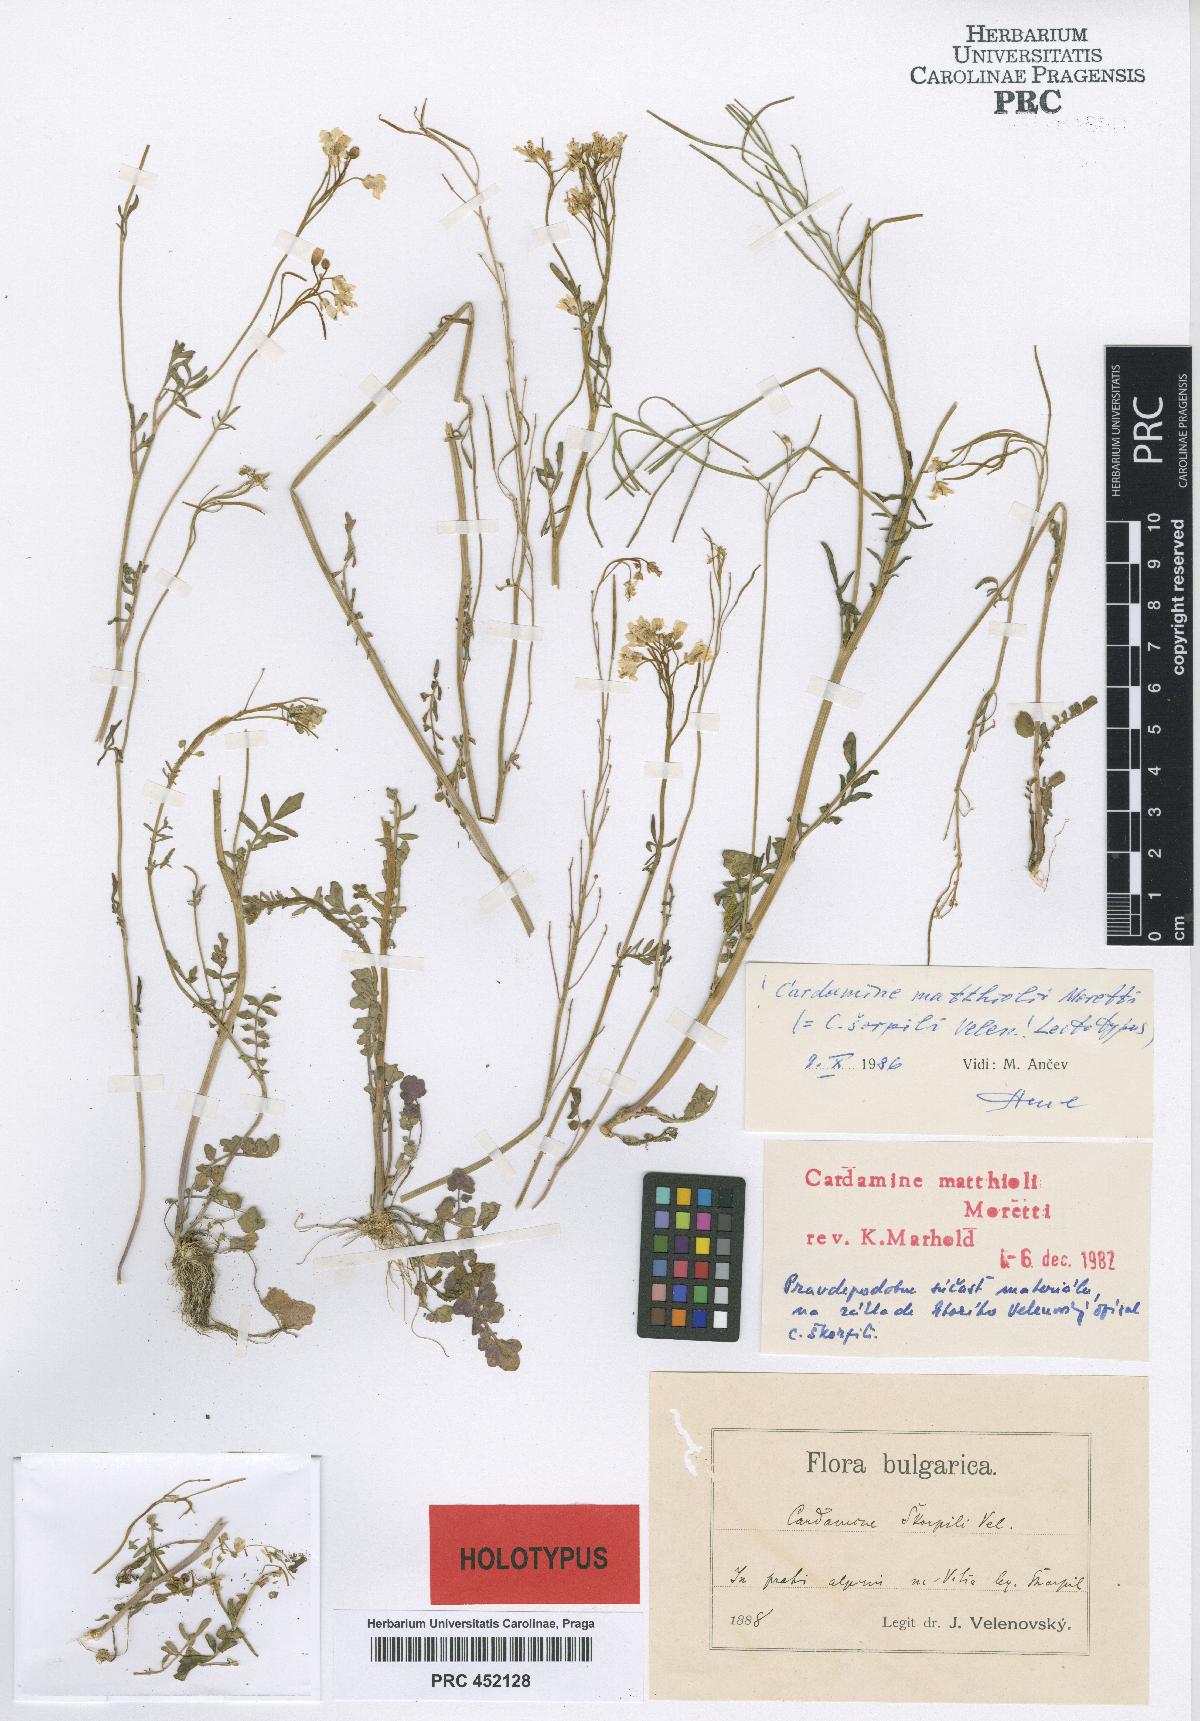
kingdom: Plantae
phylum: Tracheophyta
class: Magnoliopsida
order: Brassicales
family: Brassicaceae
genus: Cardamine
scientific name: Cardamine matthioli
